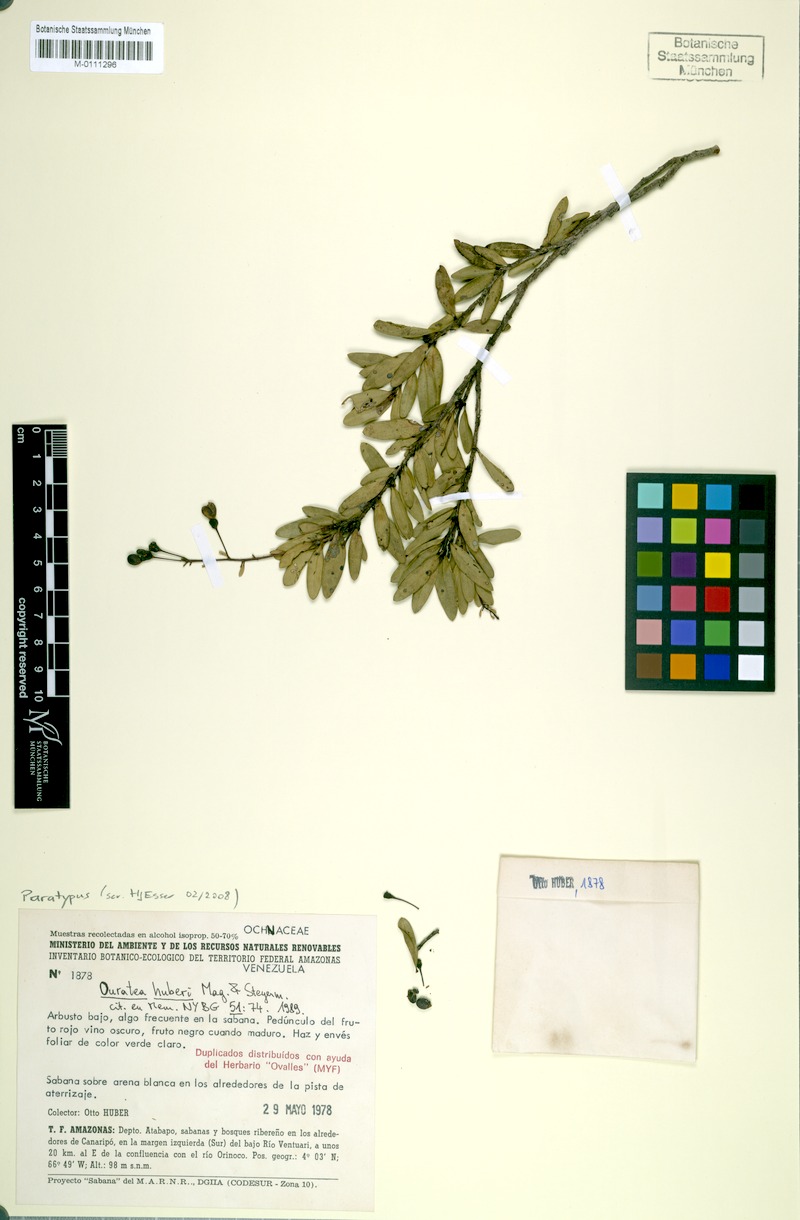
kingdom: Plantae
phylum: Tracheophyta
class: Magnoliopsida
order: Malpighiales
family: Ochnaceae
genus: Ouratea
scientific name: Ouratea huberi
